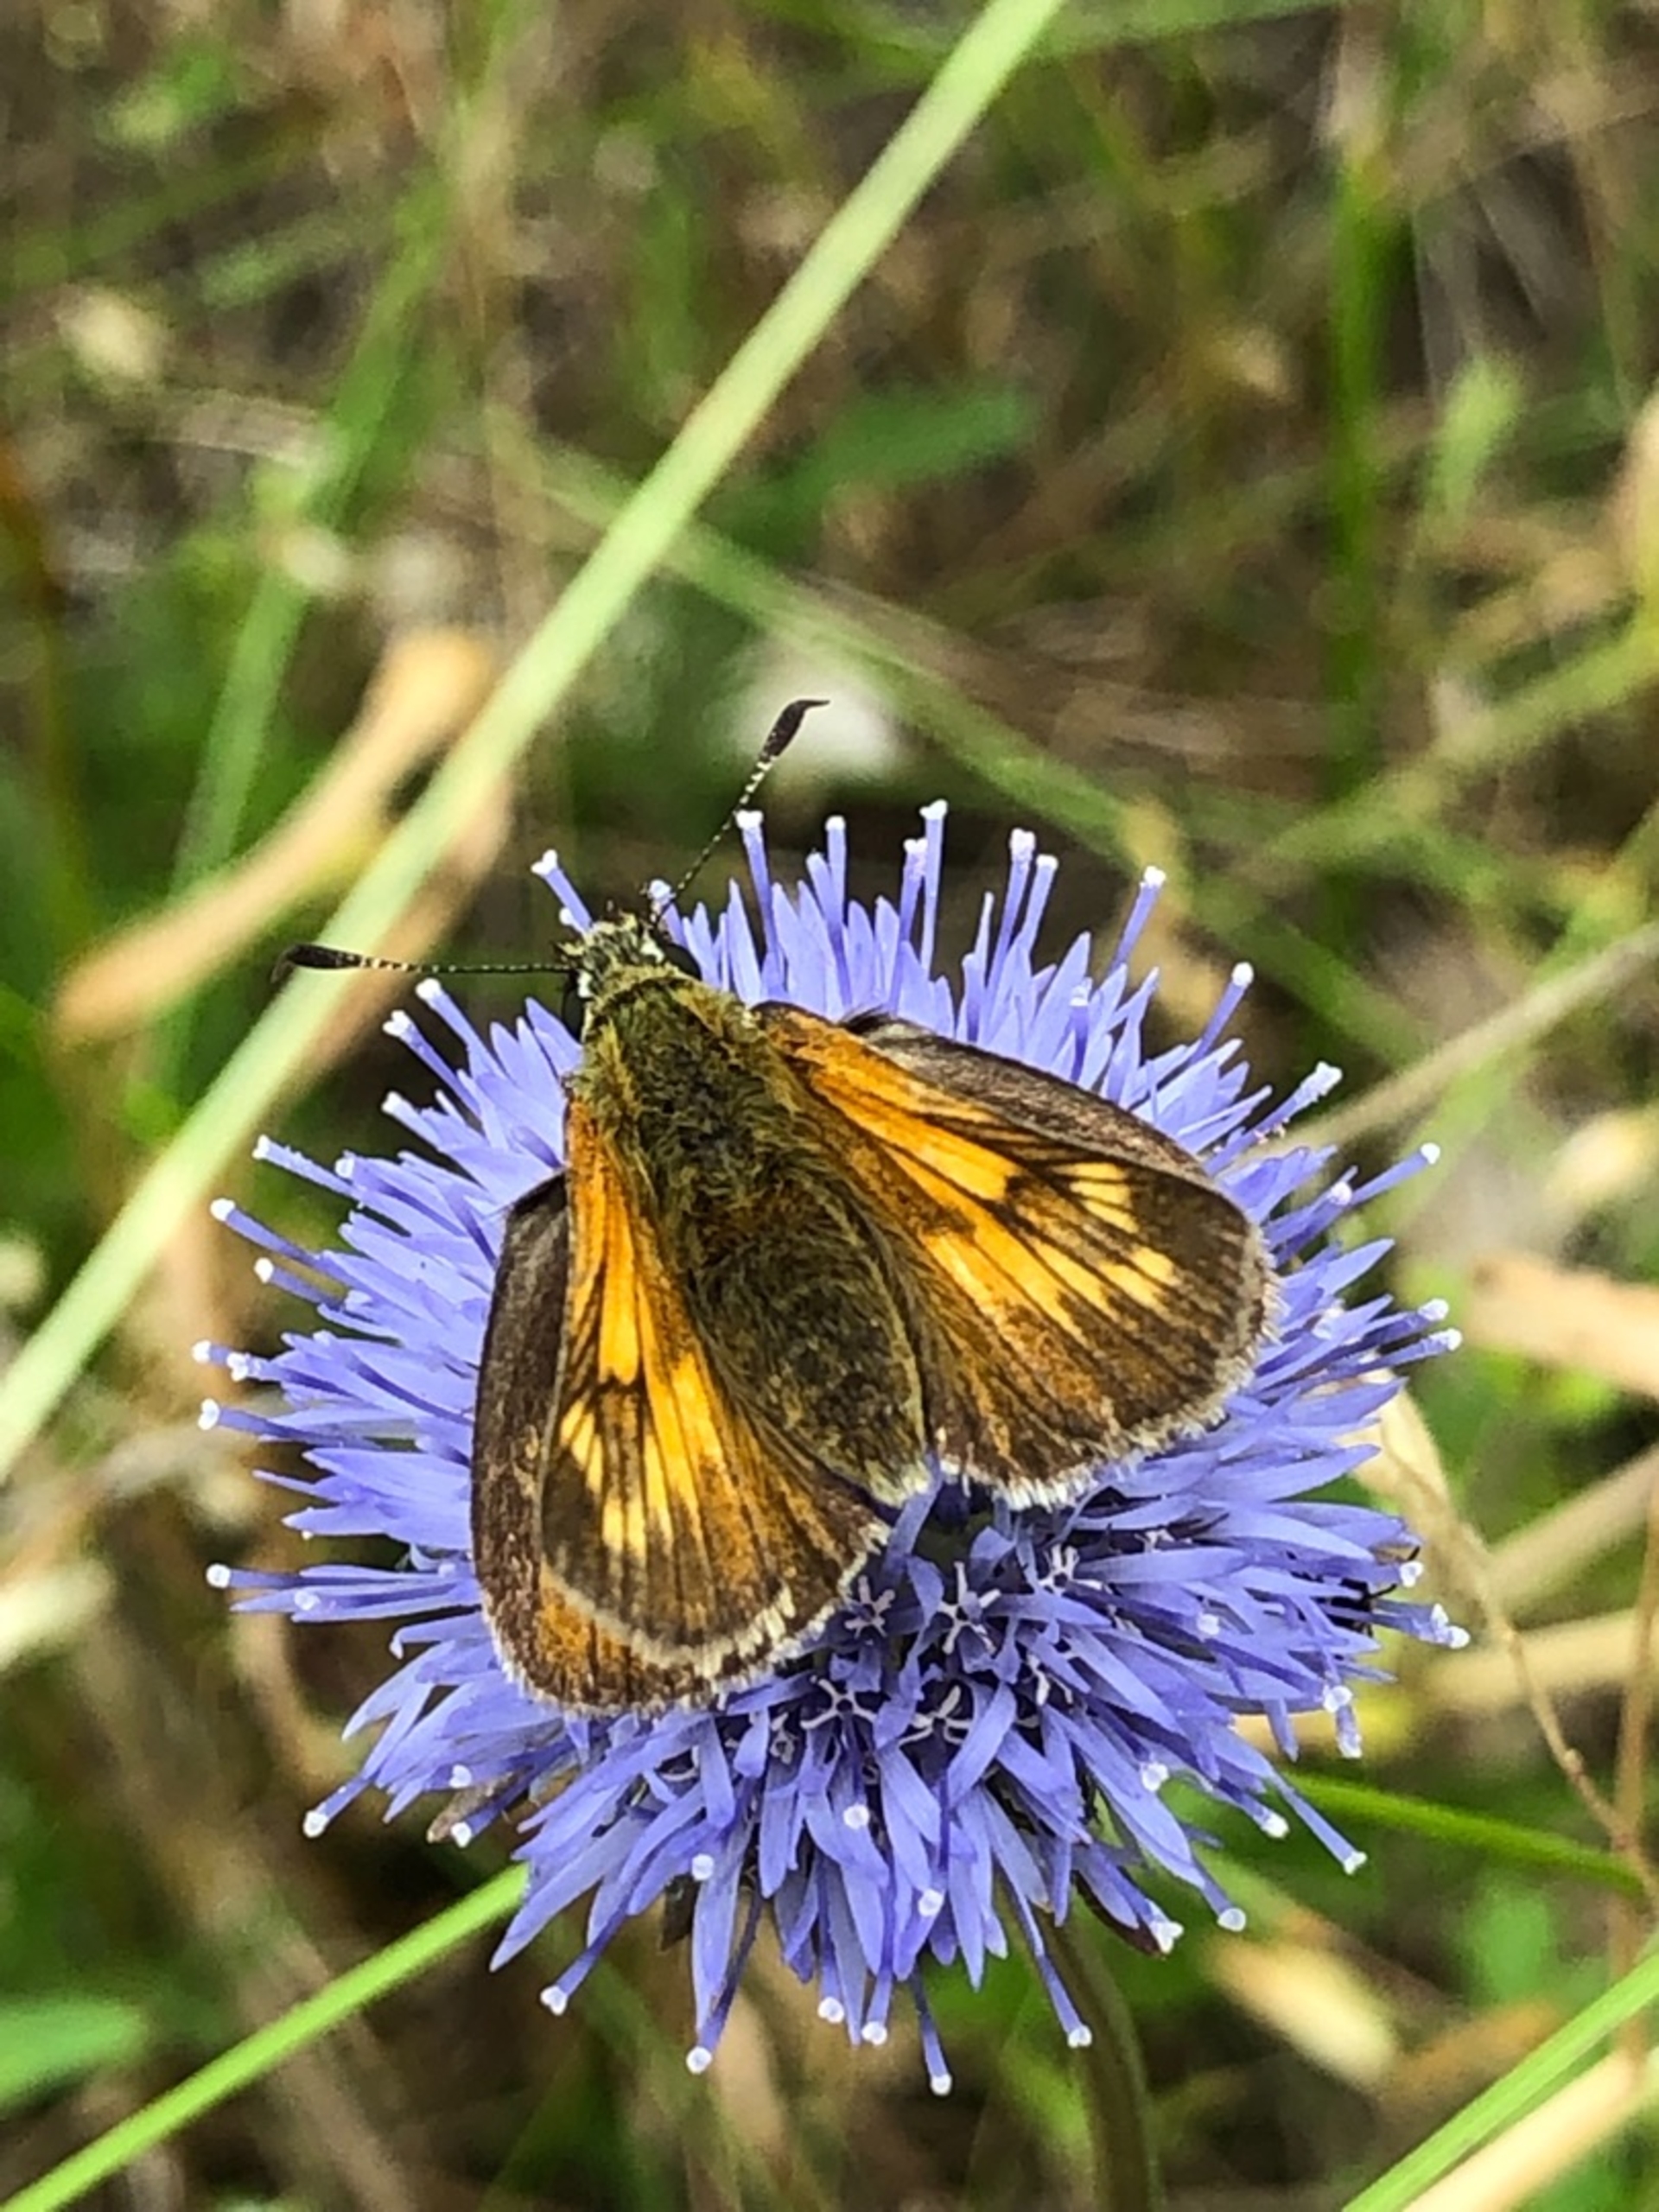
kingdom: Animalia
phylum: Arthropoda
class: Insecta
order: Lepidoptera
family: Hesperiidae
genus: Ochlodes
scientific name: Ochlodes venata
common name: Stor bredpande
